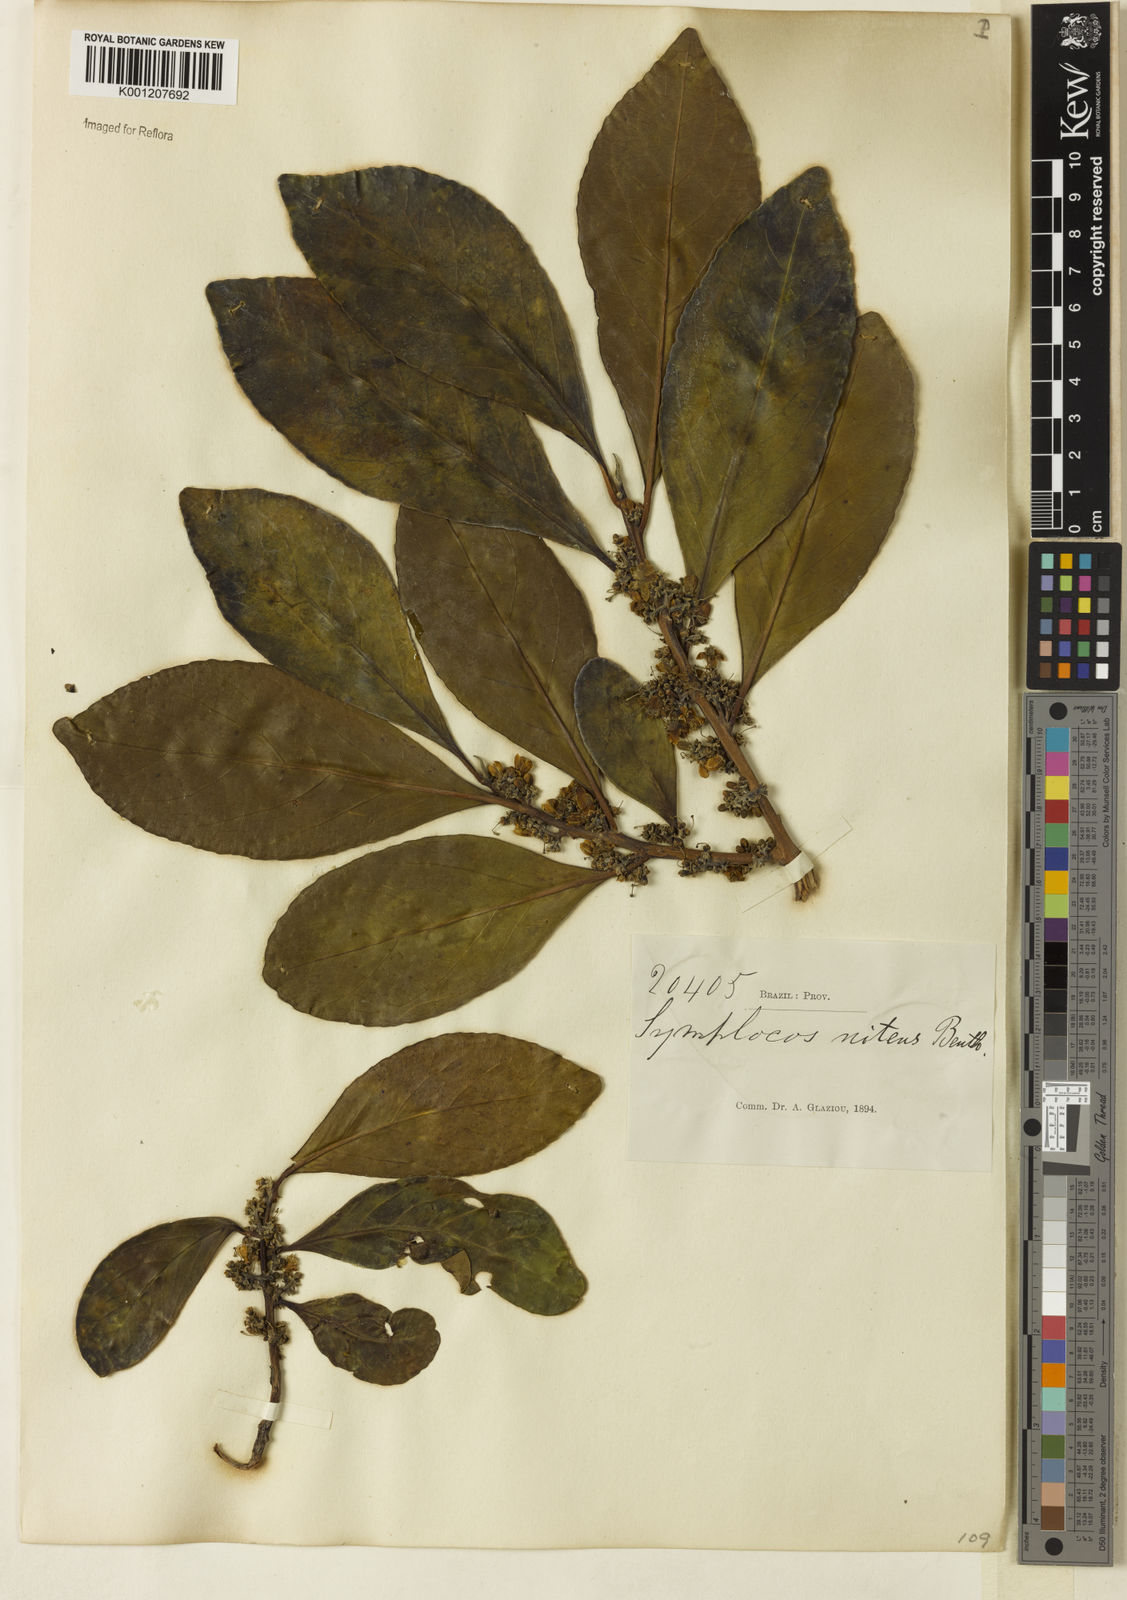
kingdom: Plantae
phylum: Tracheophyta
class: Magnoliopsida
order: Ericales
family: Symplocaceae
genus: Symplocos
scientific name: Symplocos nitens
